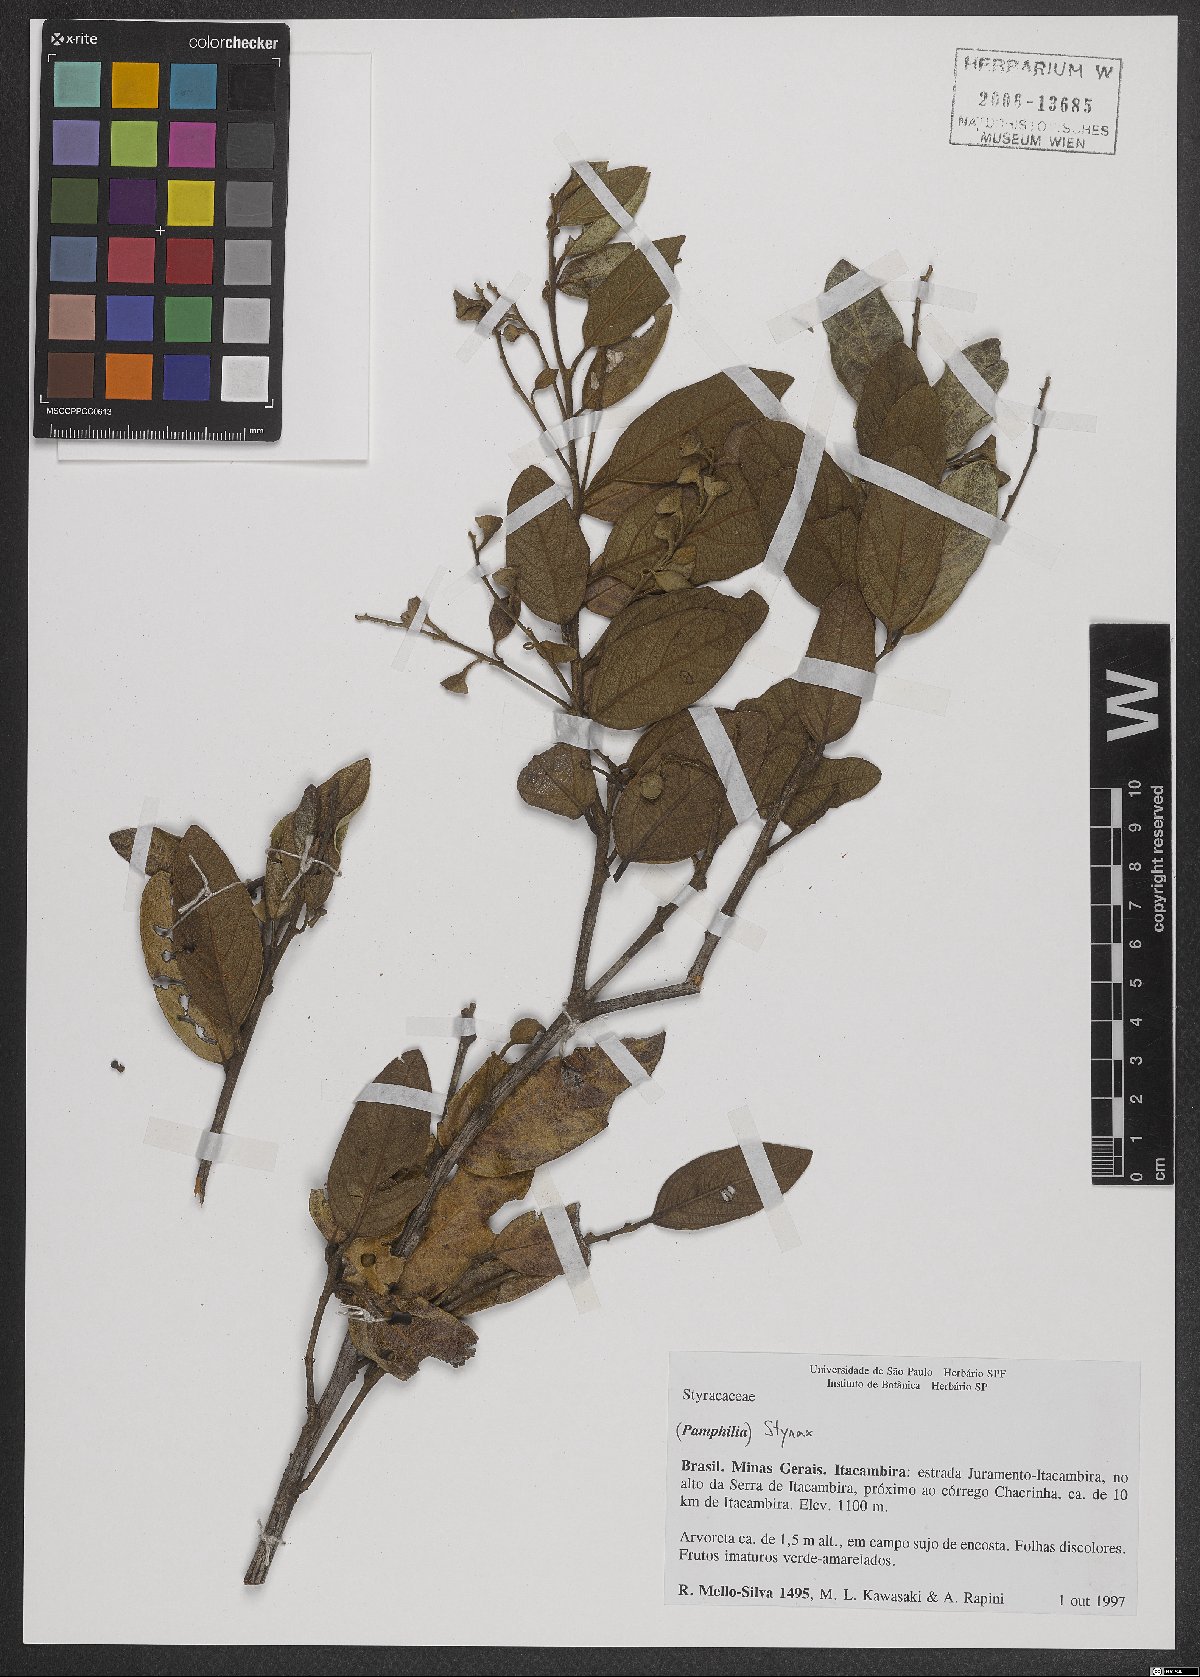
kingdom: Plantae
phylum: Tracheophyta
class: Magnoliopsida
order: Ericales
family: Styracaceae
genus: Styrax
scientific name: Styrax
